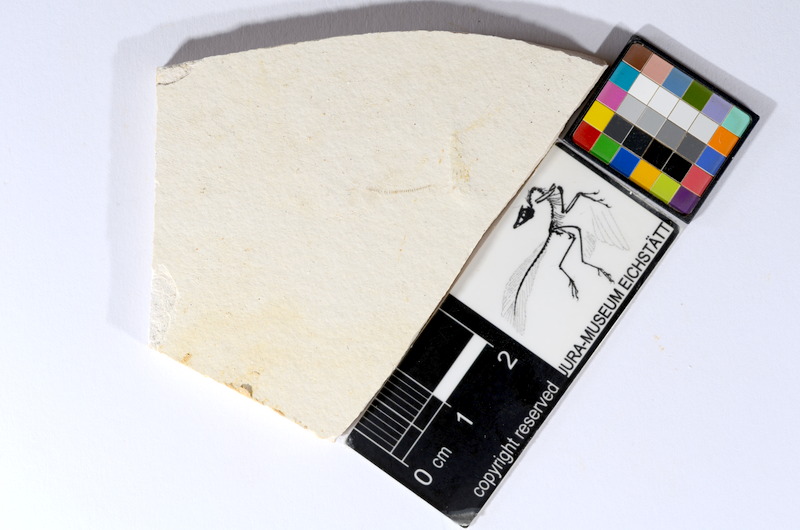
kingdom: Animalia
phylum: Chordata
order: Salmoniformes
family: Orthogonikleithridae
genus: Orthogonikleithrus
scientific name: Orthogonikleithrus hoelli
